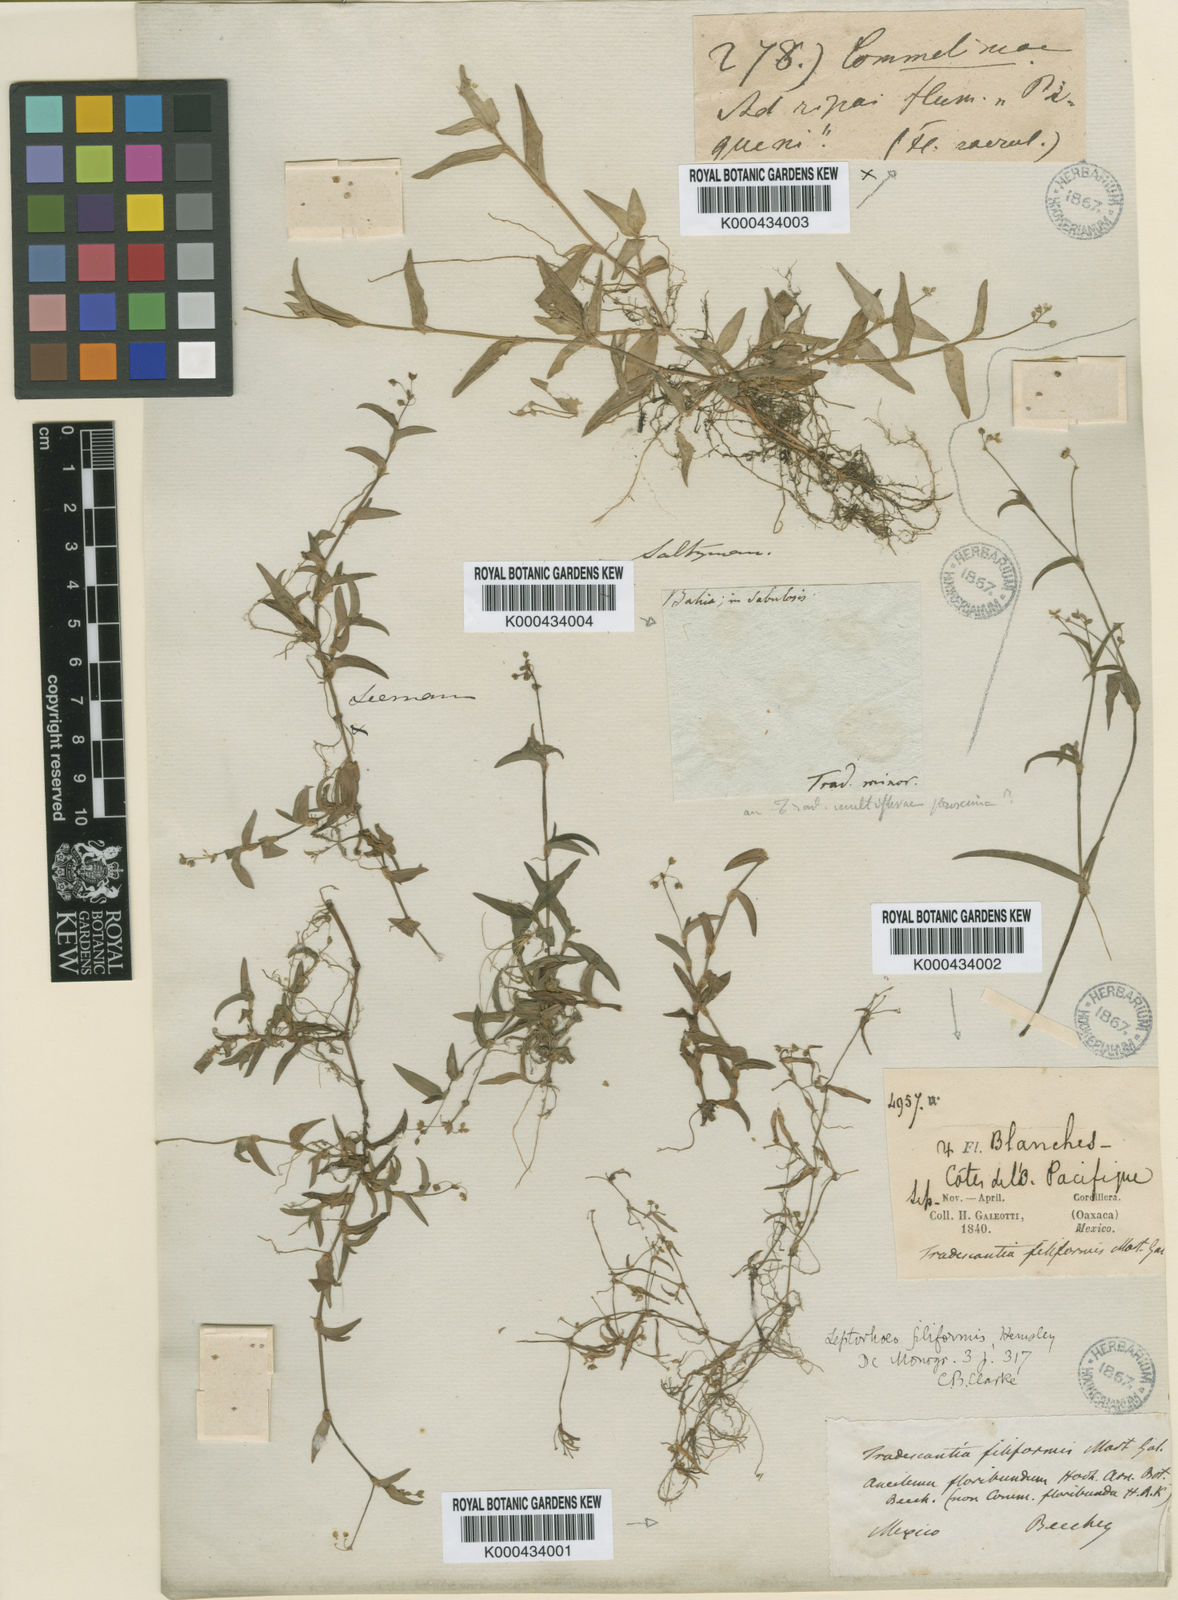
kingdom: Plantae
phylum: Tracheophyta
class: Liliopsida
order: Commelinales
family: Commelinaceae
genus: Callisia
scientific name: Callisia filiformis
